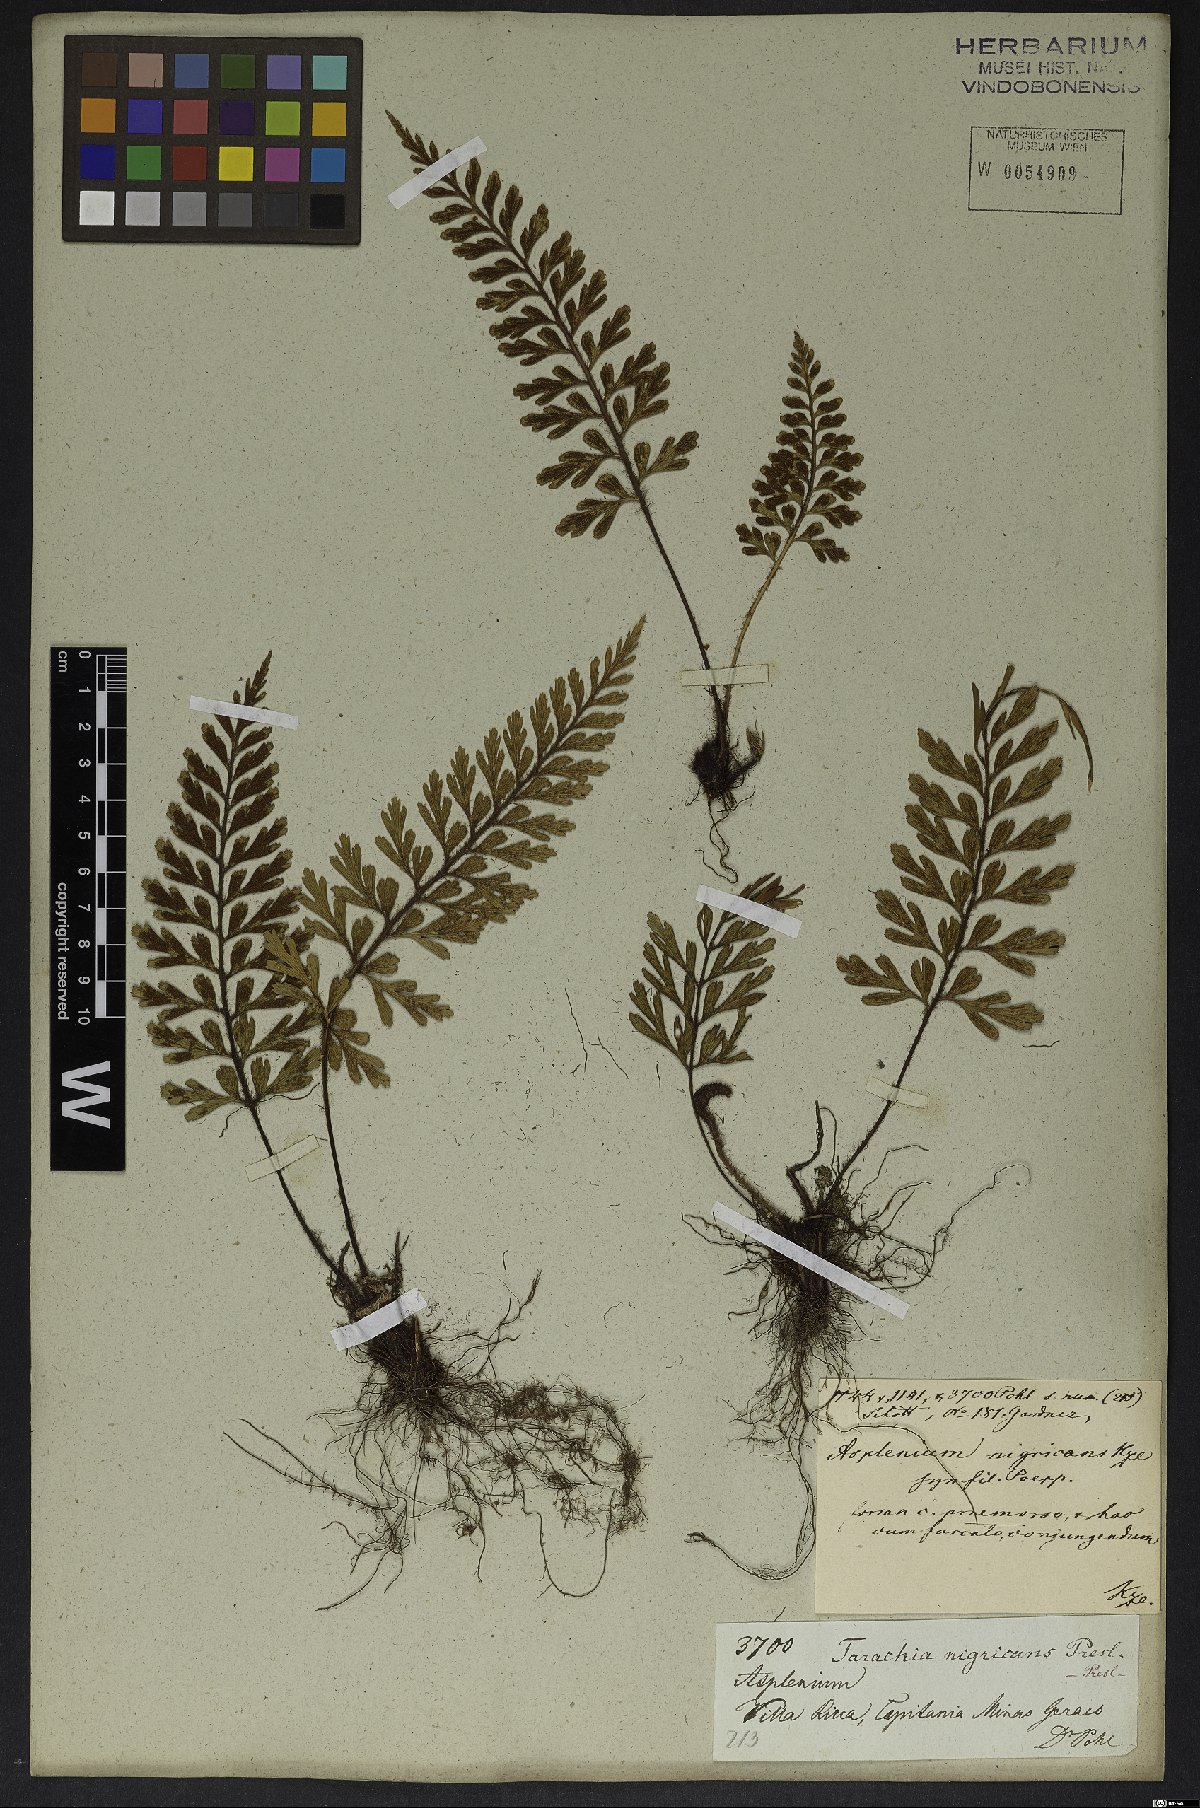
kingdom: Plantae
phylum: Tracheophyta
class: Polypodiopsida
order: Polypodiales
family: Aspleniaceae
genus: Asplenium
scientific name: Asplenium praemorsum
